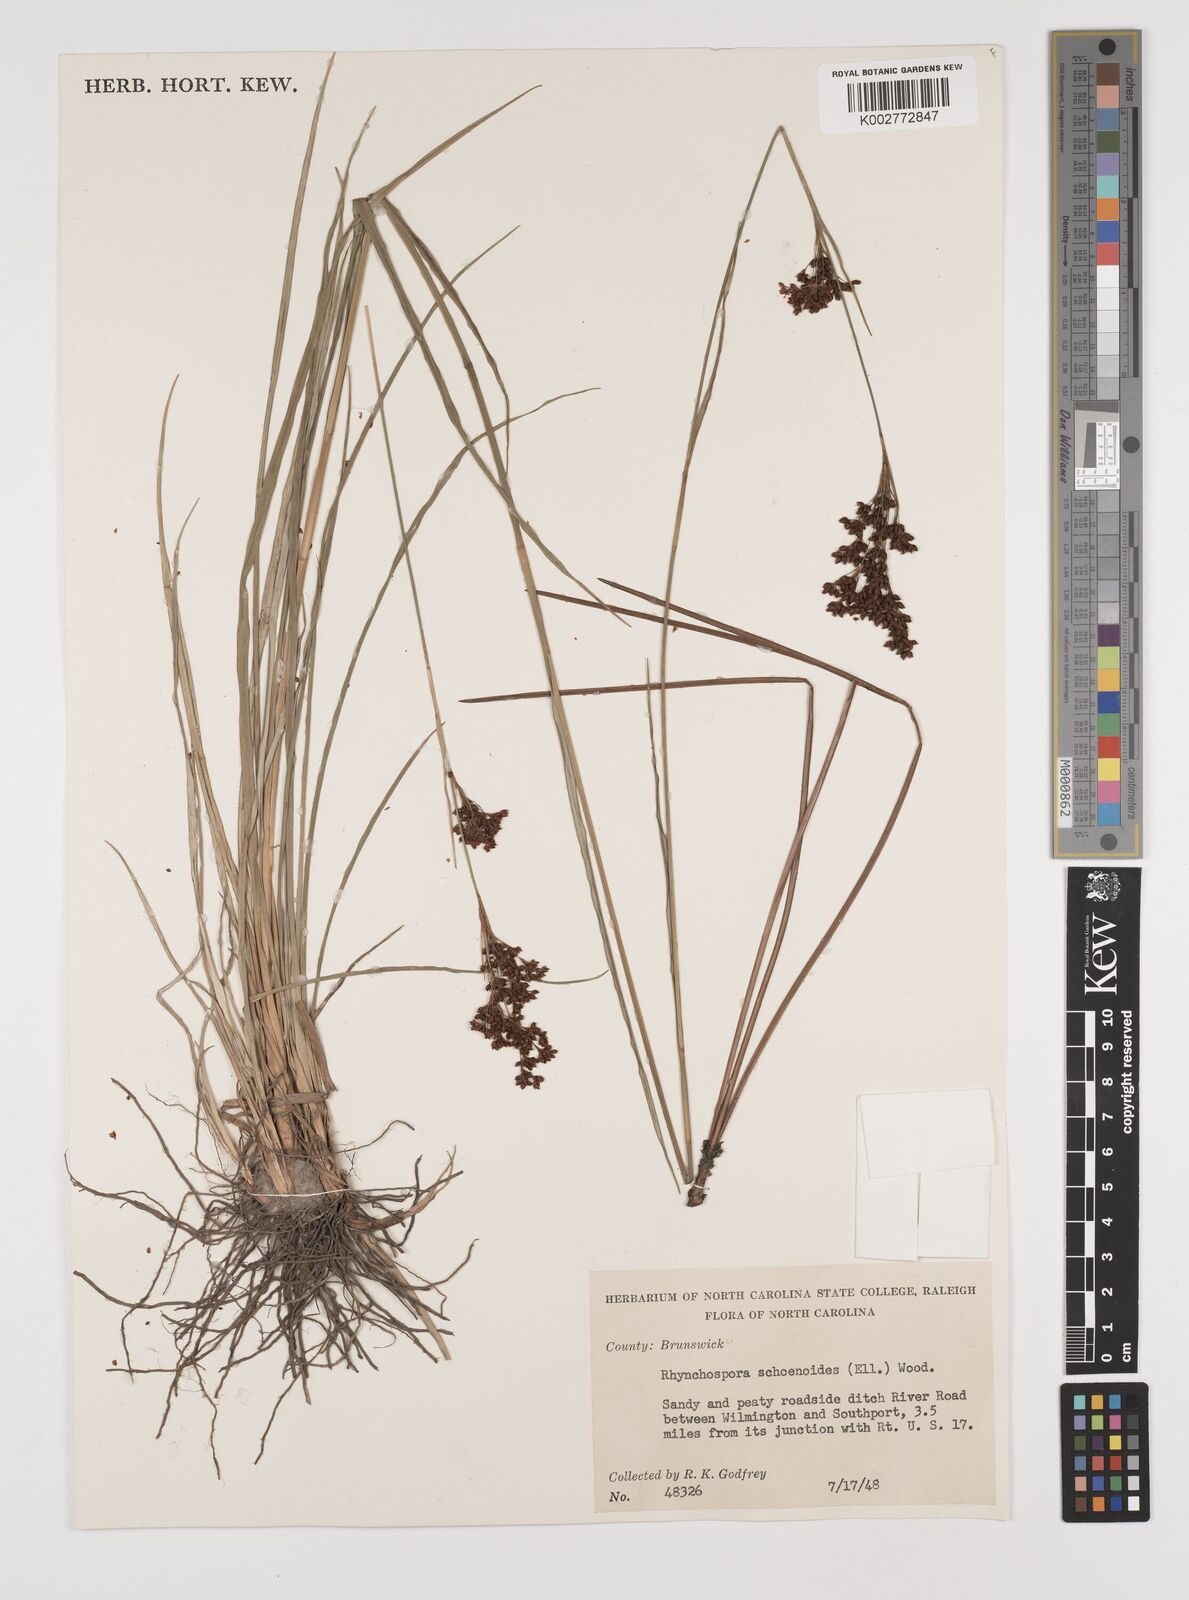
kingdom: Plantae
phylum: Tracheophyta
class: Liliopsida
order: Poales
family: Cyperaceae
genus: Rhynchospora
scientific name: Rhynchospora holoschoenoides
